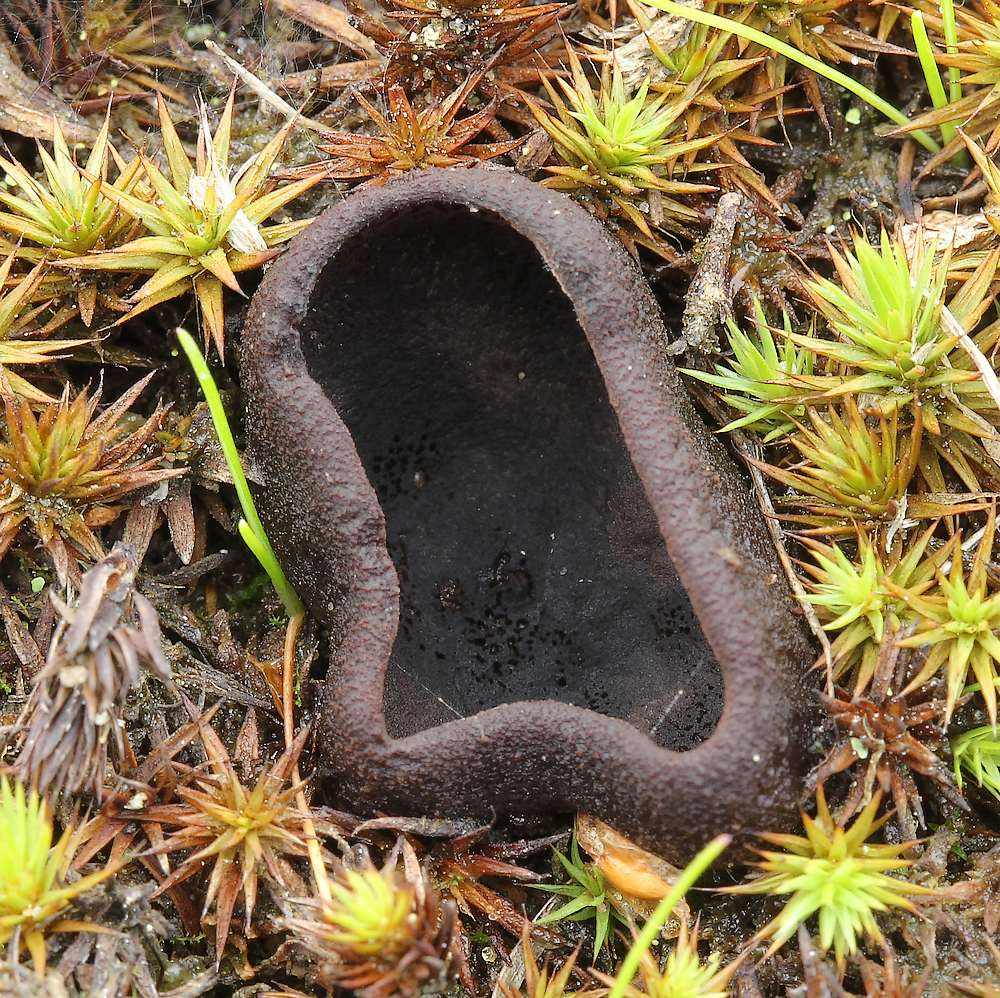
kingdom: Fungi
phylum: Ascomycota
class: Pezizomycetes
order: Pezizales
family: Pezizaceae
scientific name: Pezizaceae
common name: bægersvampfamilien
